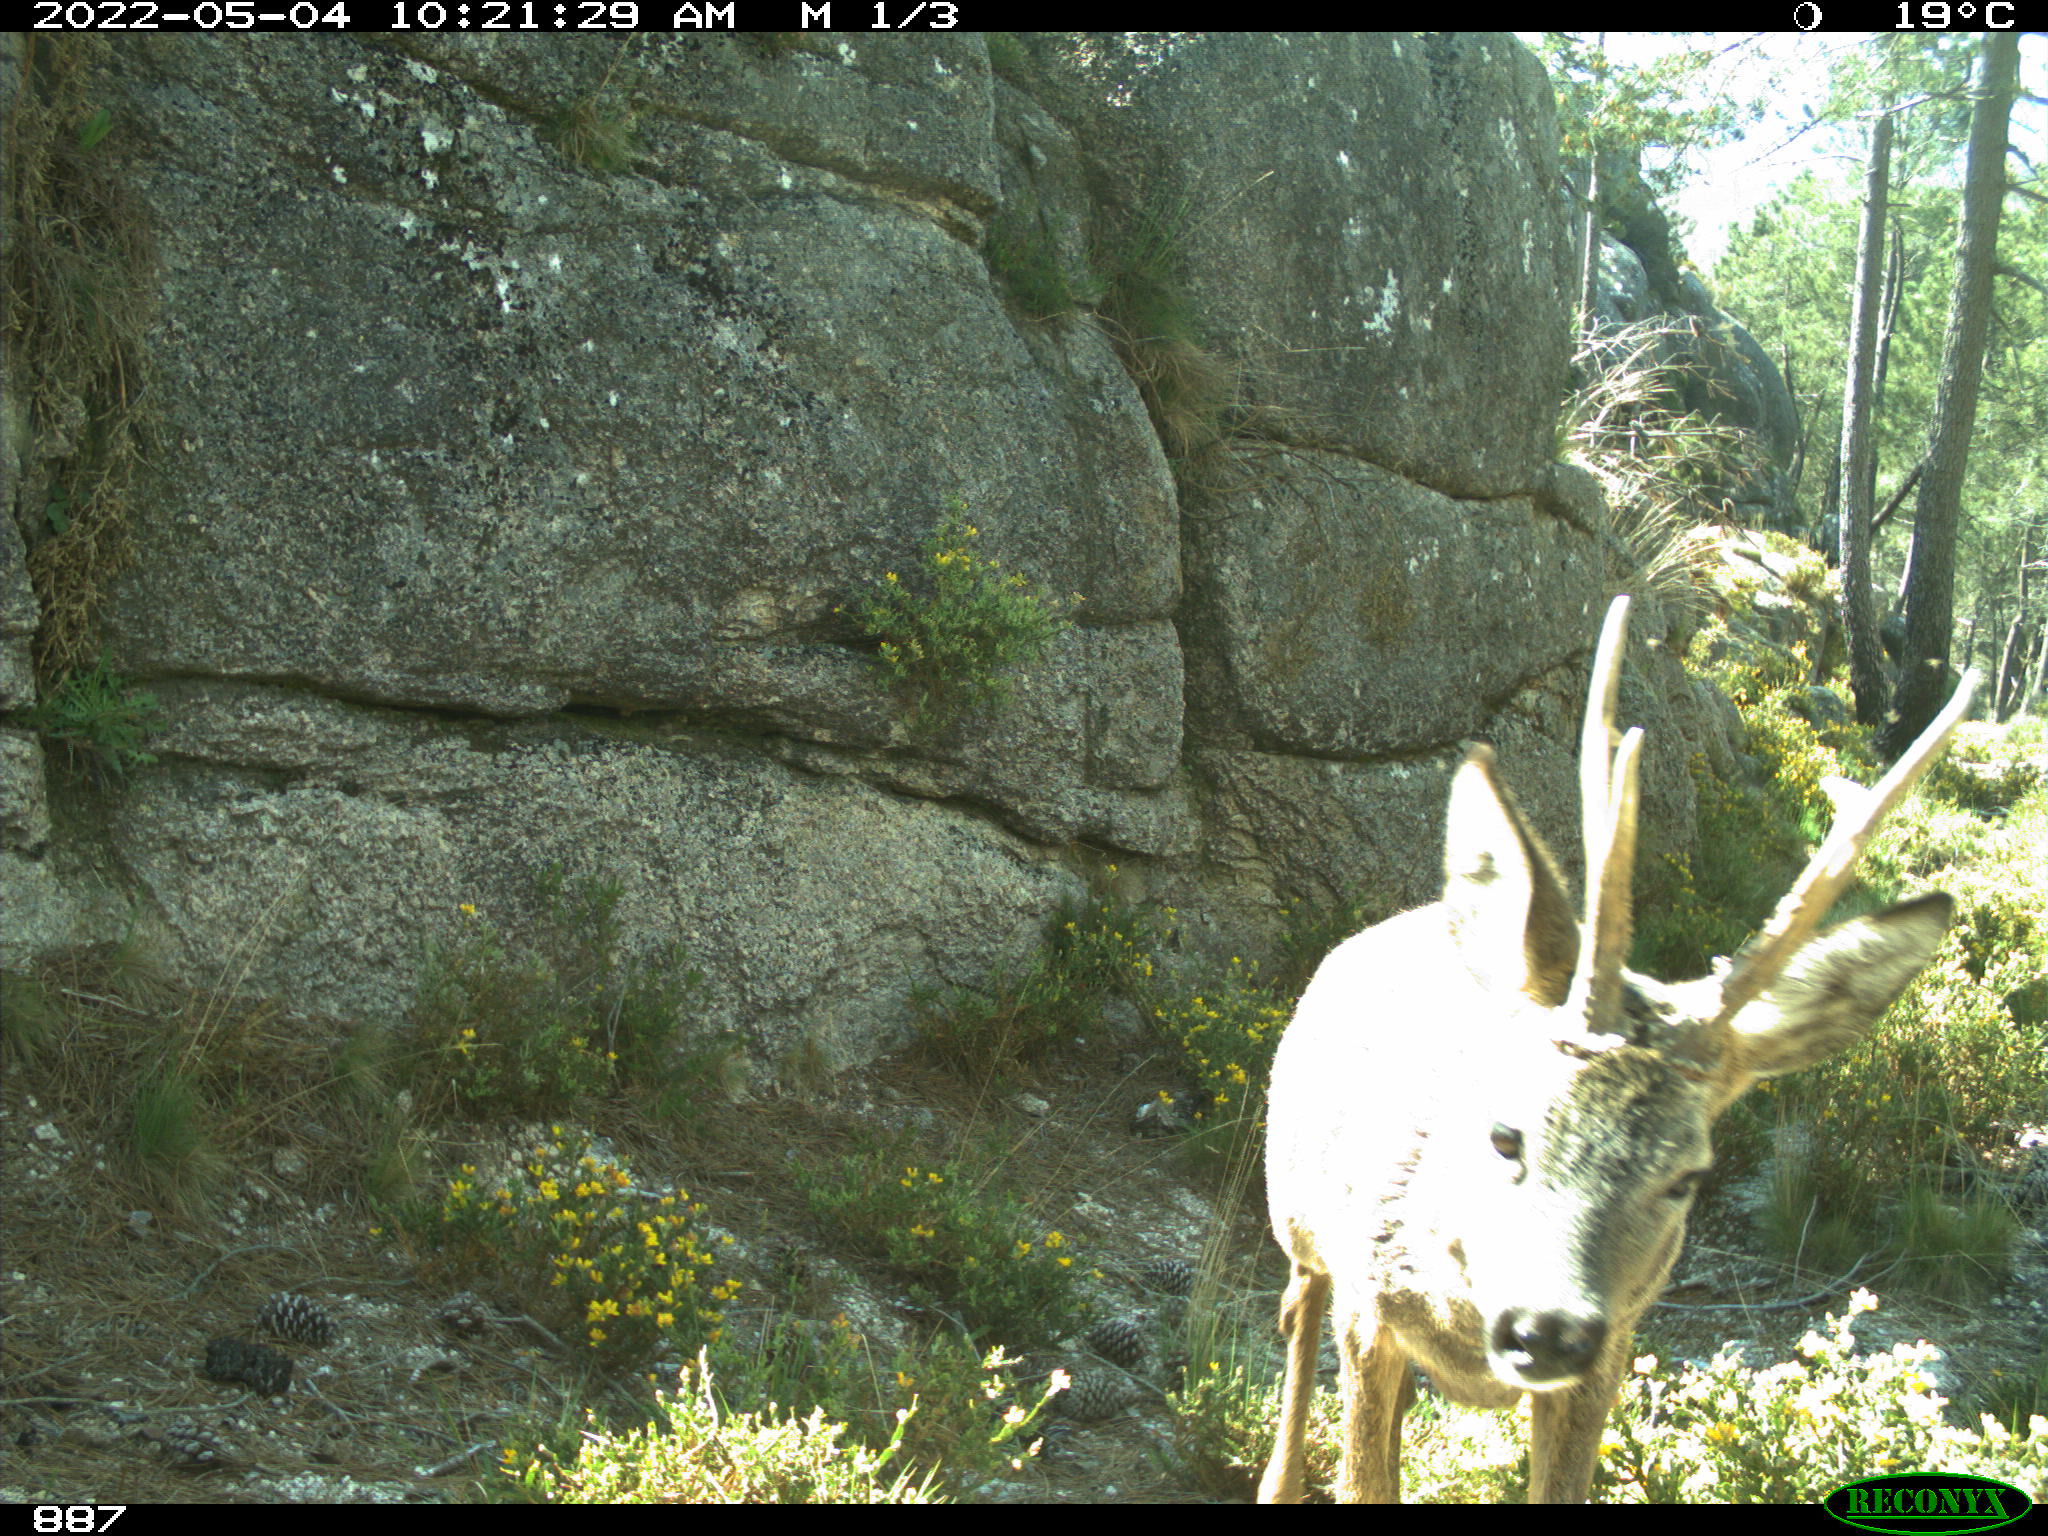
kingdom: Animalia
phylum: Chordata
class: Mammalia
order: Artiodactyla
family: Cervidae
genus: Capreolus
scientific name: Capreolus capreolus
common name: Western roe deer
